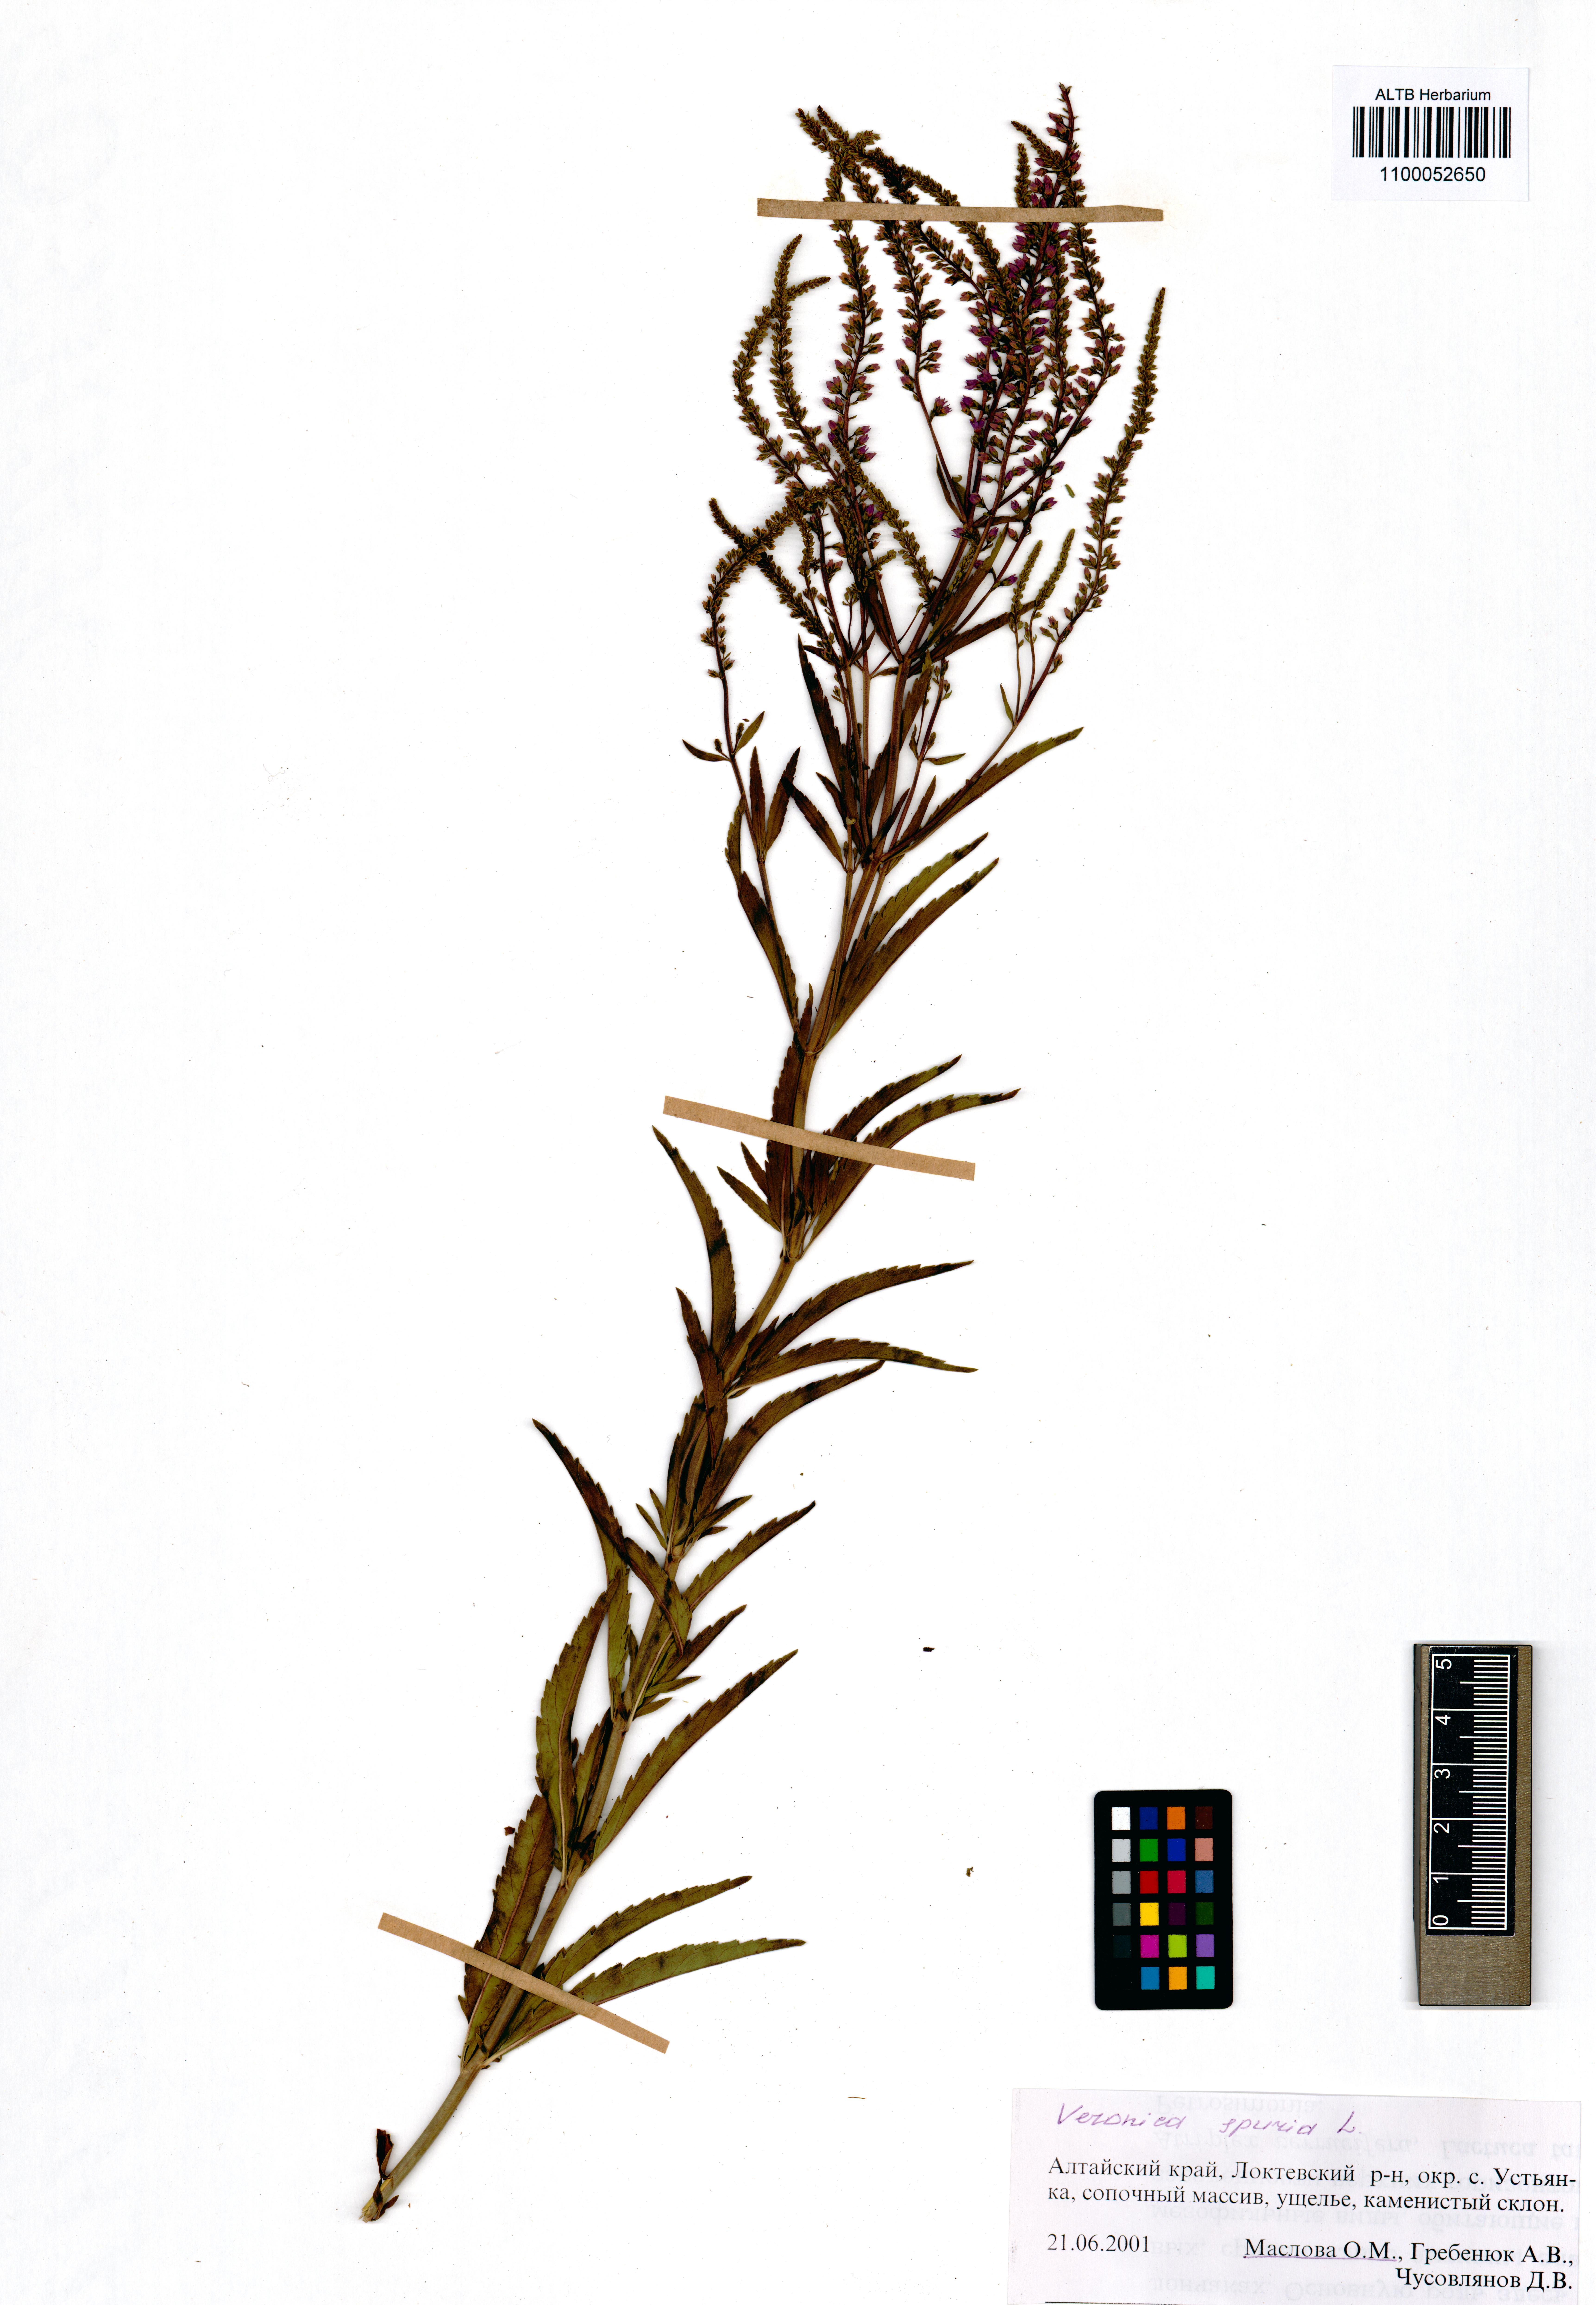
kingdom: Plantae
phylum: Tracheophyta
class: Magnoliopsida
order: Lamiales
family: Plantaginaceae
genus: Veronica
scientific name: Veronica spuria
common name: Bastard speedwell
